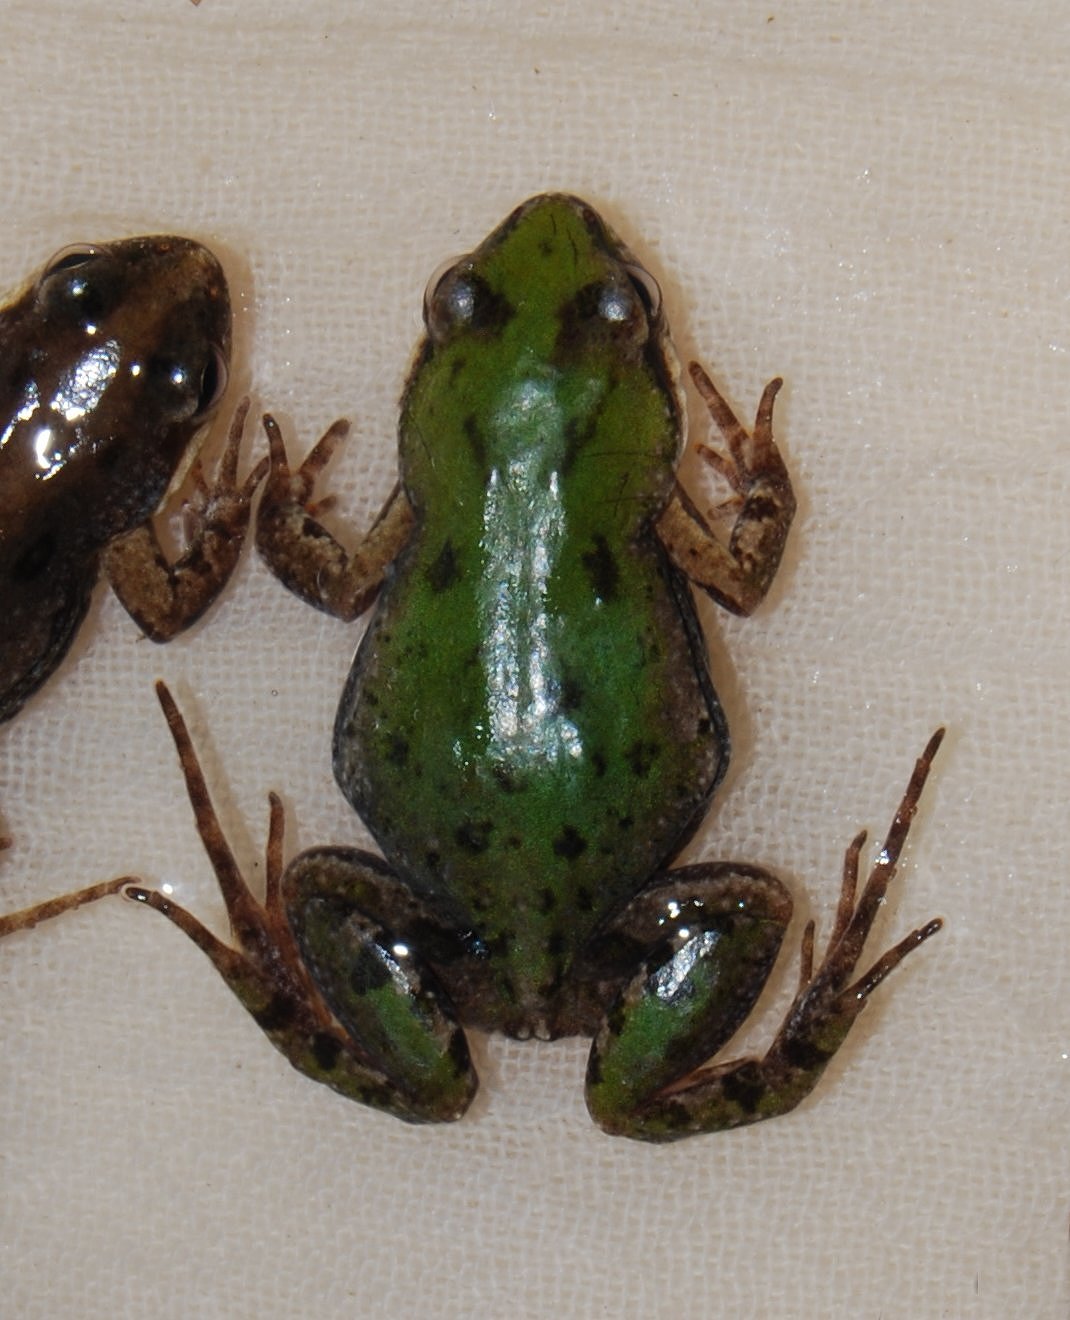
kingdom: Animalia
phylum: Chordata
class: Amphibia
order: Anura
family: Pyxicephalidae
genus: Cacosternum
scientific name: Cacosternum boettgeri
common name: Boettger's frog
